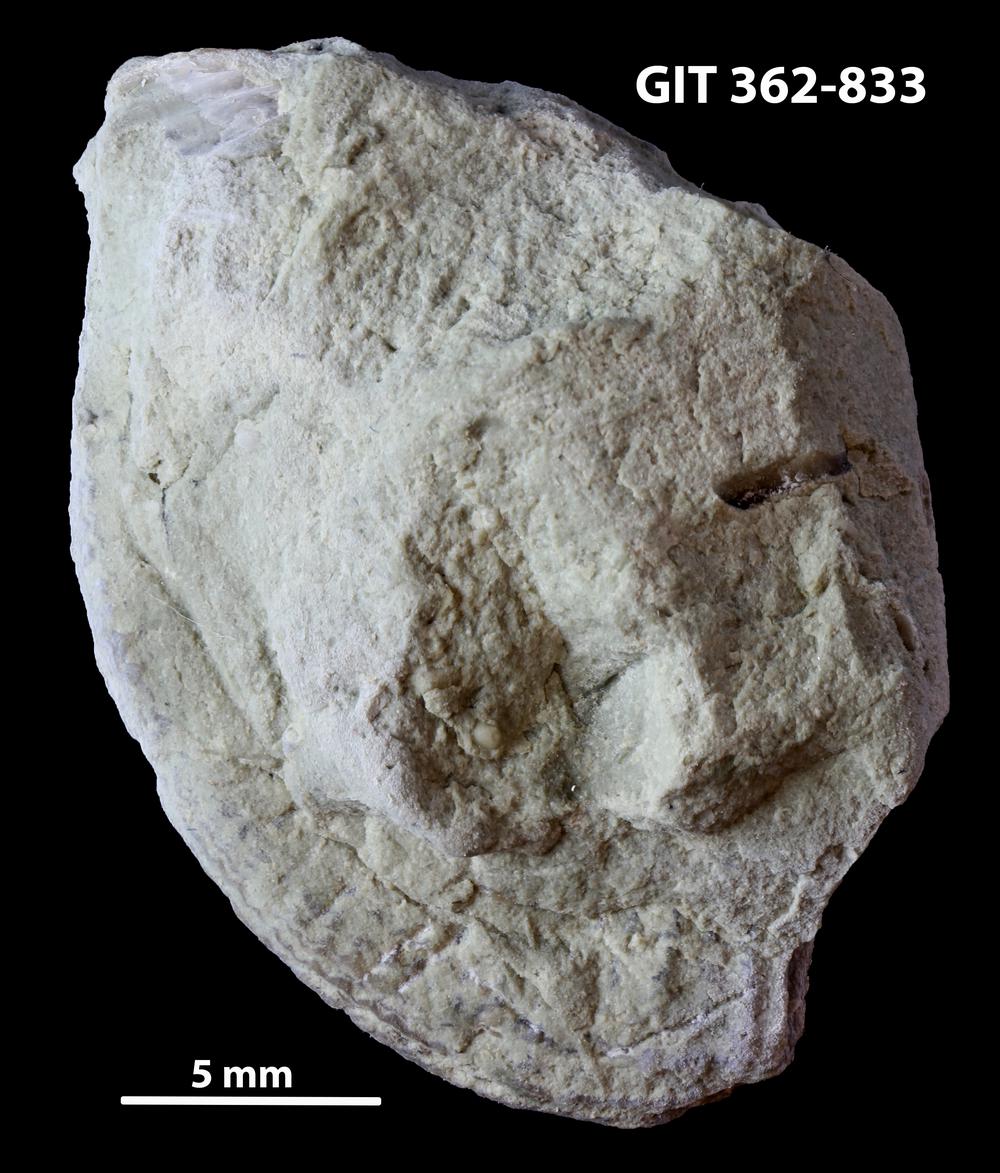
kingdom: Animalia
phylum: Brachiopoda
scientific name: Brachiopoda
